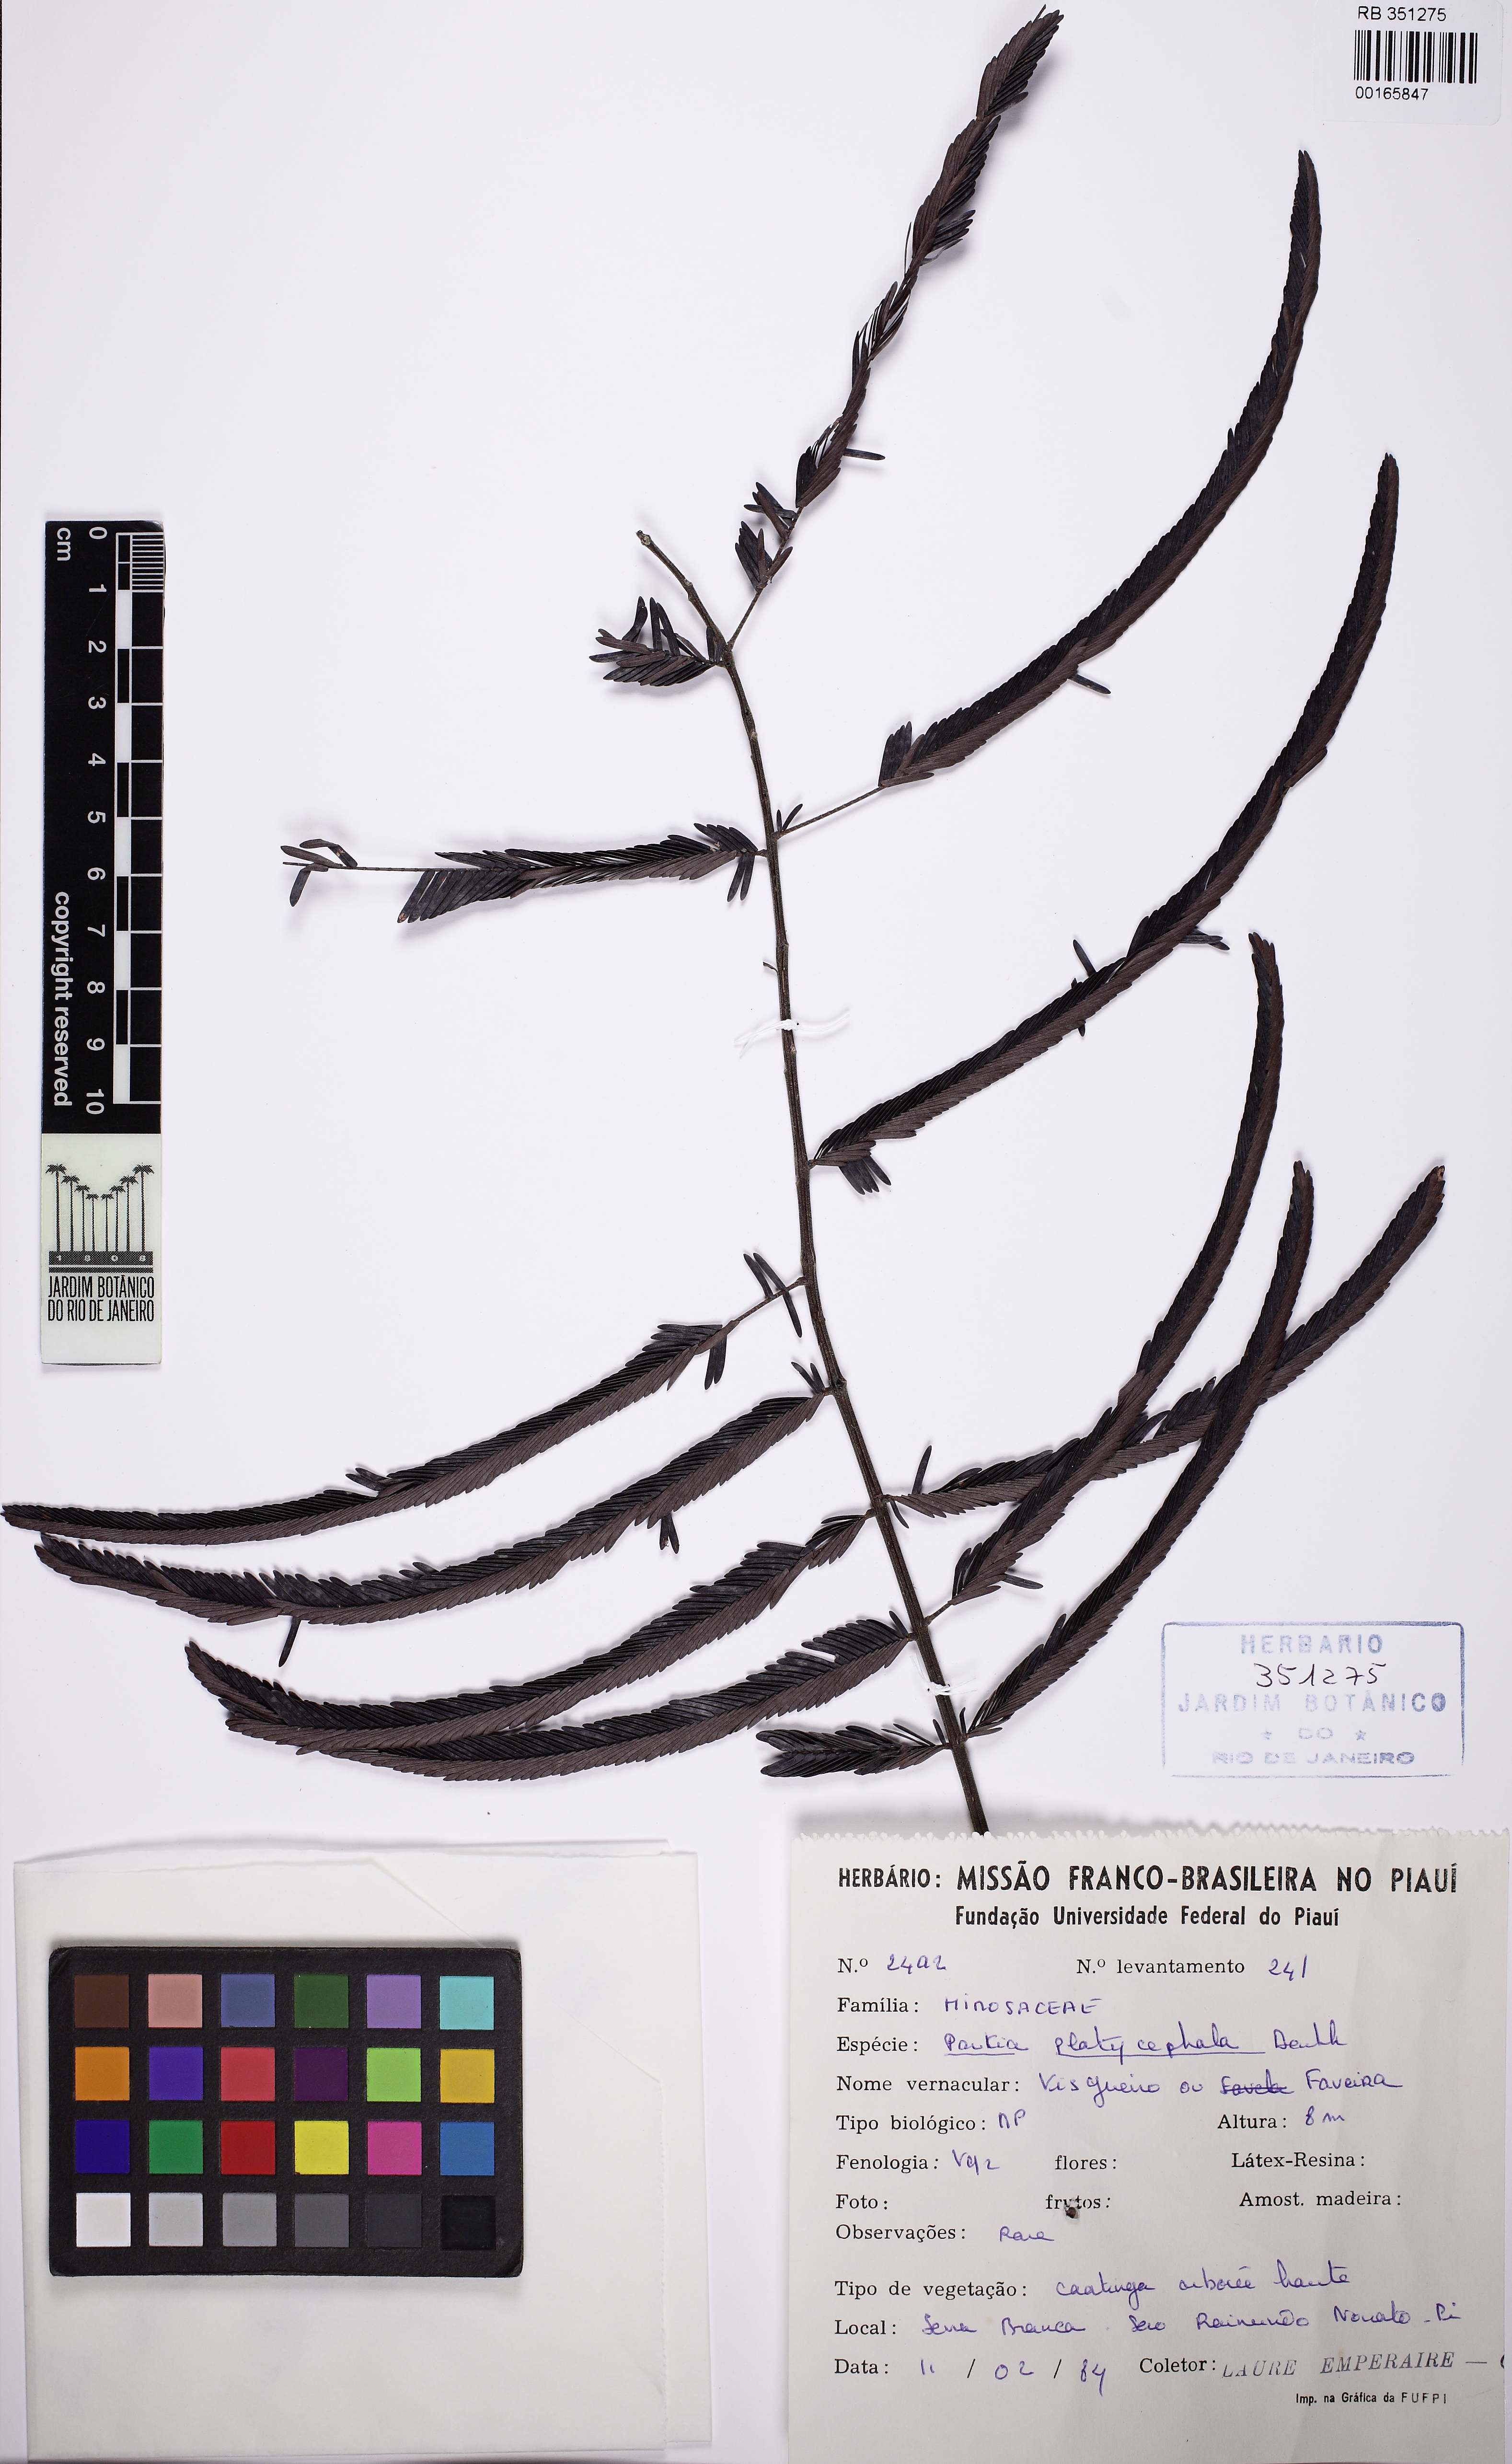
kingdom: Plantae
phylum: Tracheophyta
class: Magnoliopsida
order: Fabales
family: Fabaceae
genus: Parkia
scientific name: Parkia platycephala
